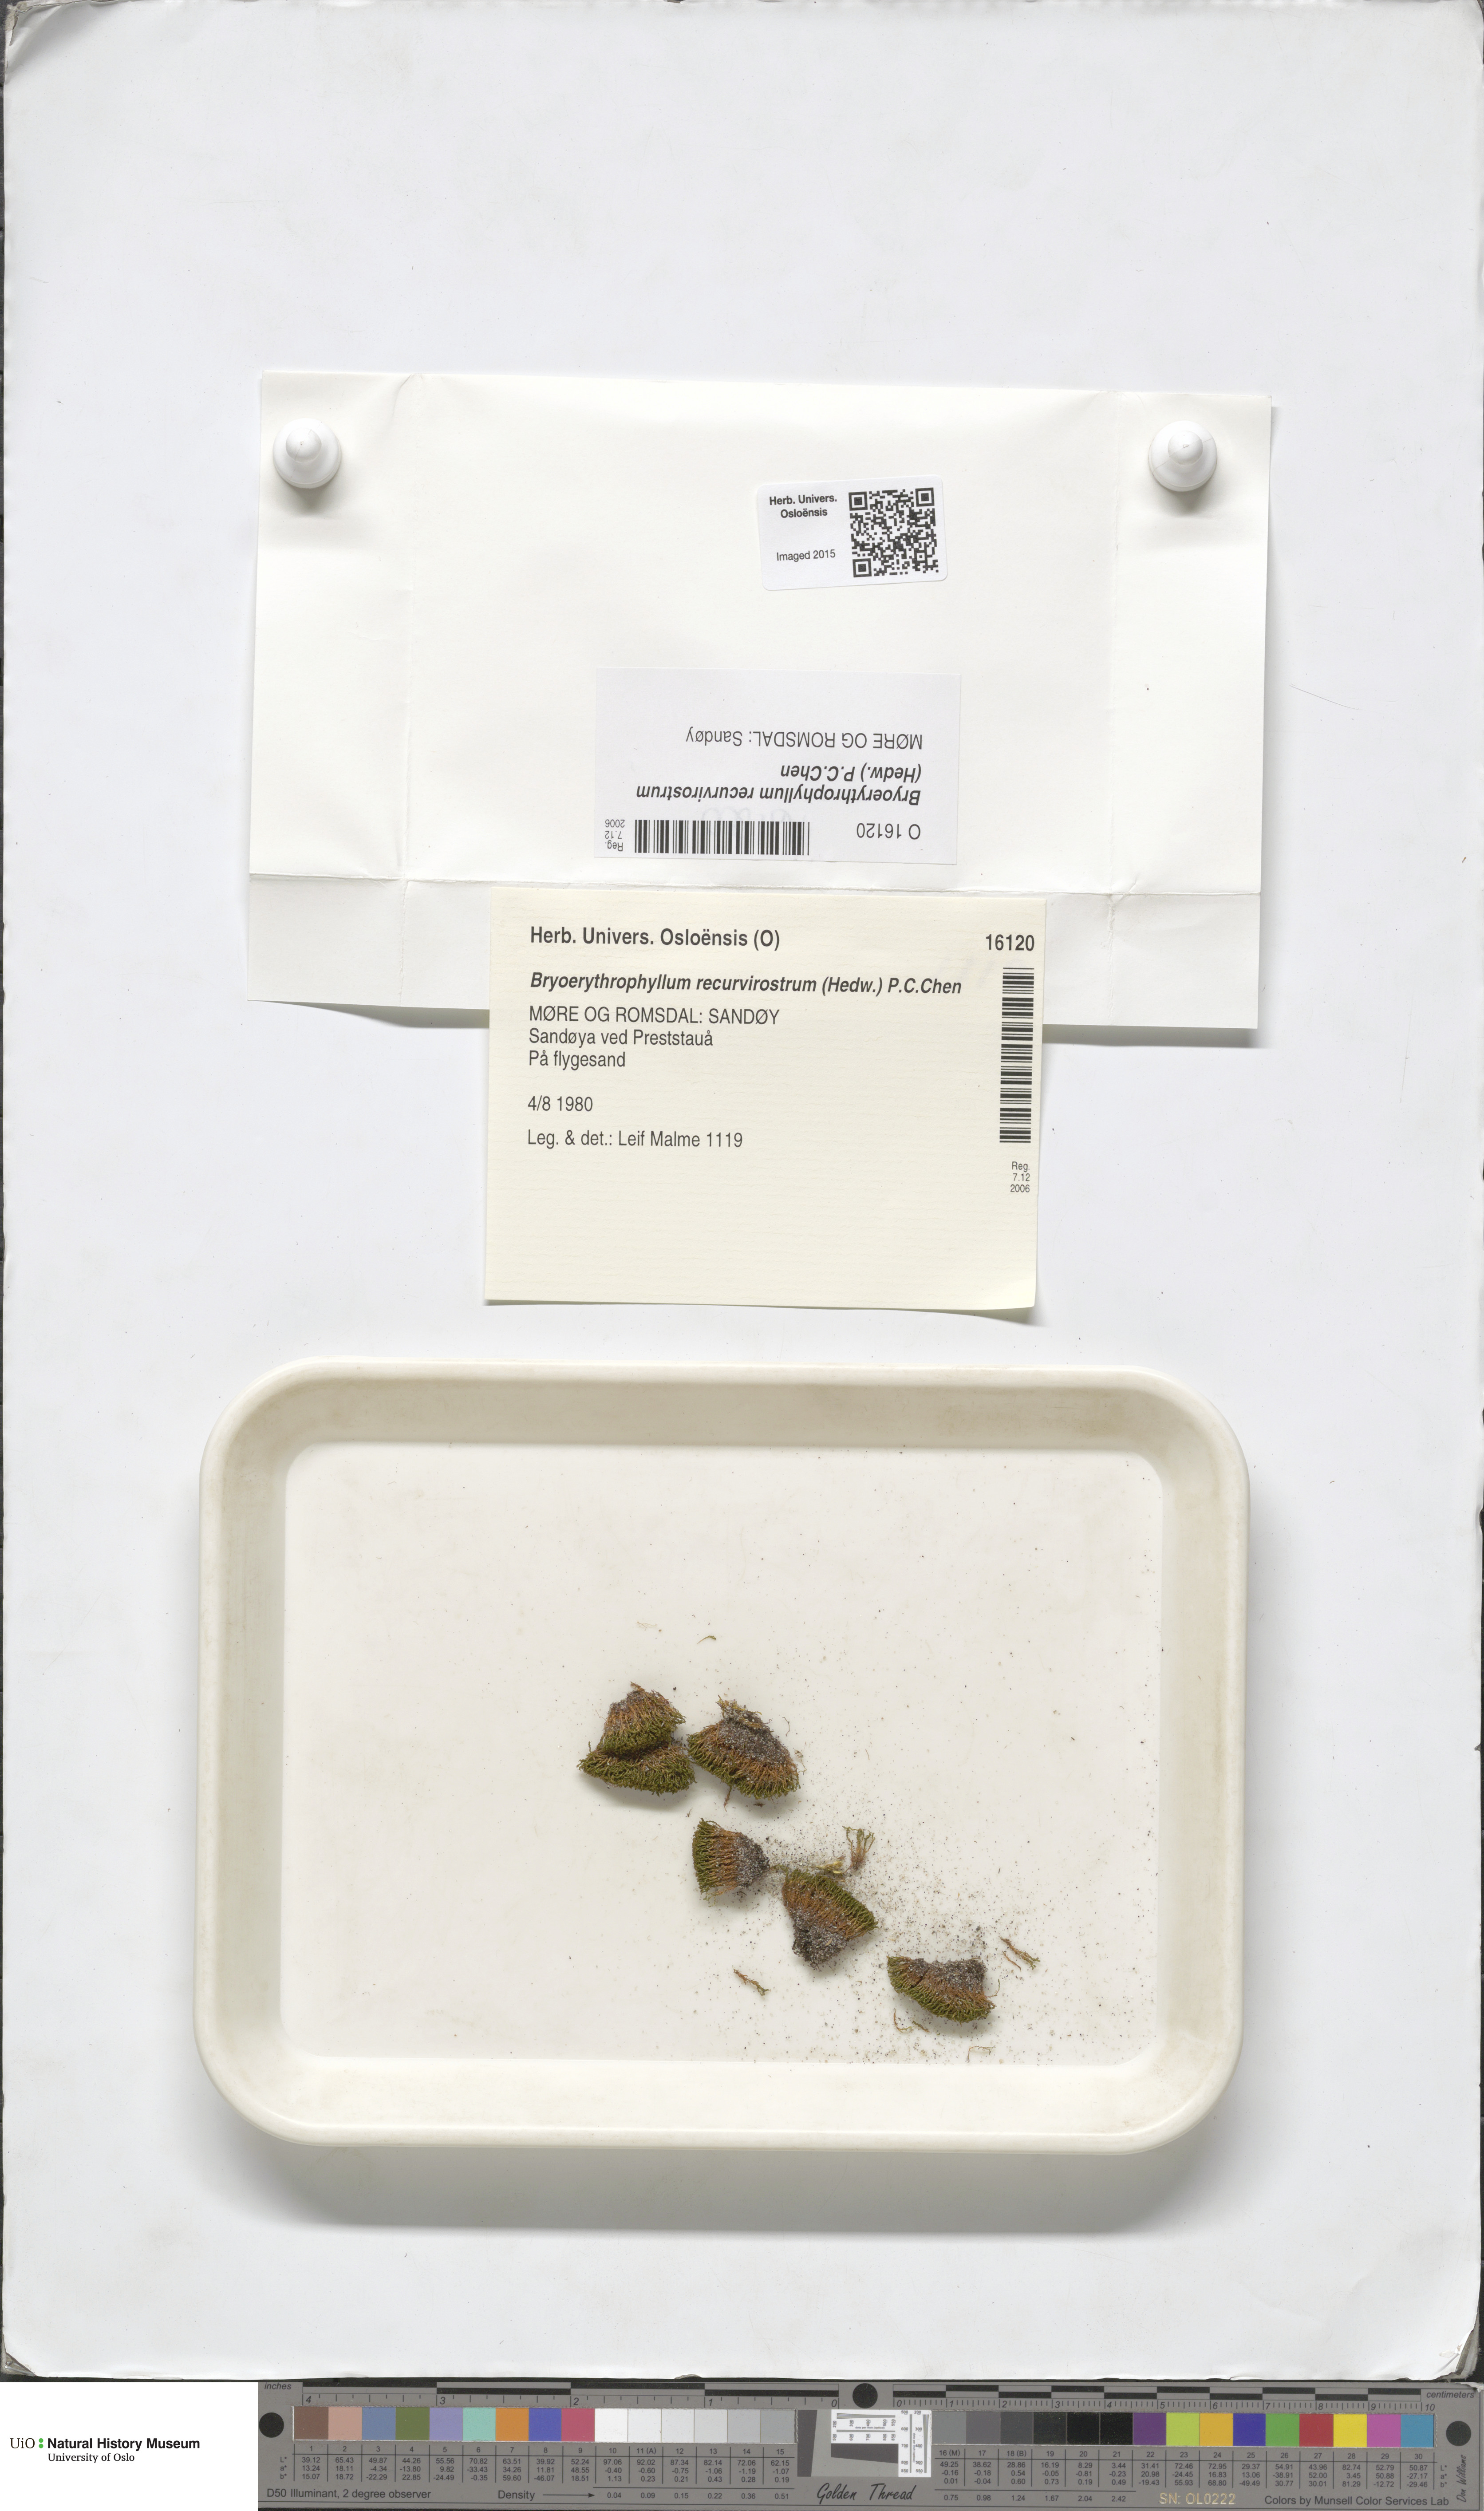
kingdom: Plantae
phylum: Bryophyta
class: Bryopsida
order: Pottiales
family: Pottiaceae
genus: Bryoerythrophyllum
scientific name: Bryoerythrophyllum recurvirostrum
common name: Red beard moss
